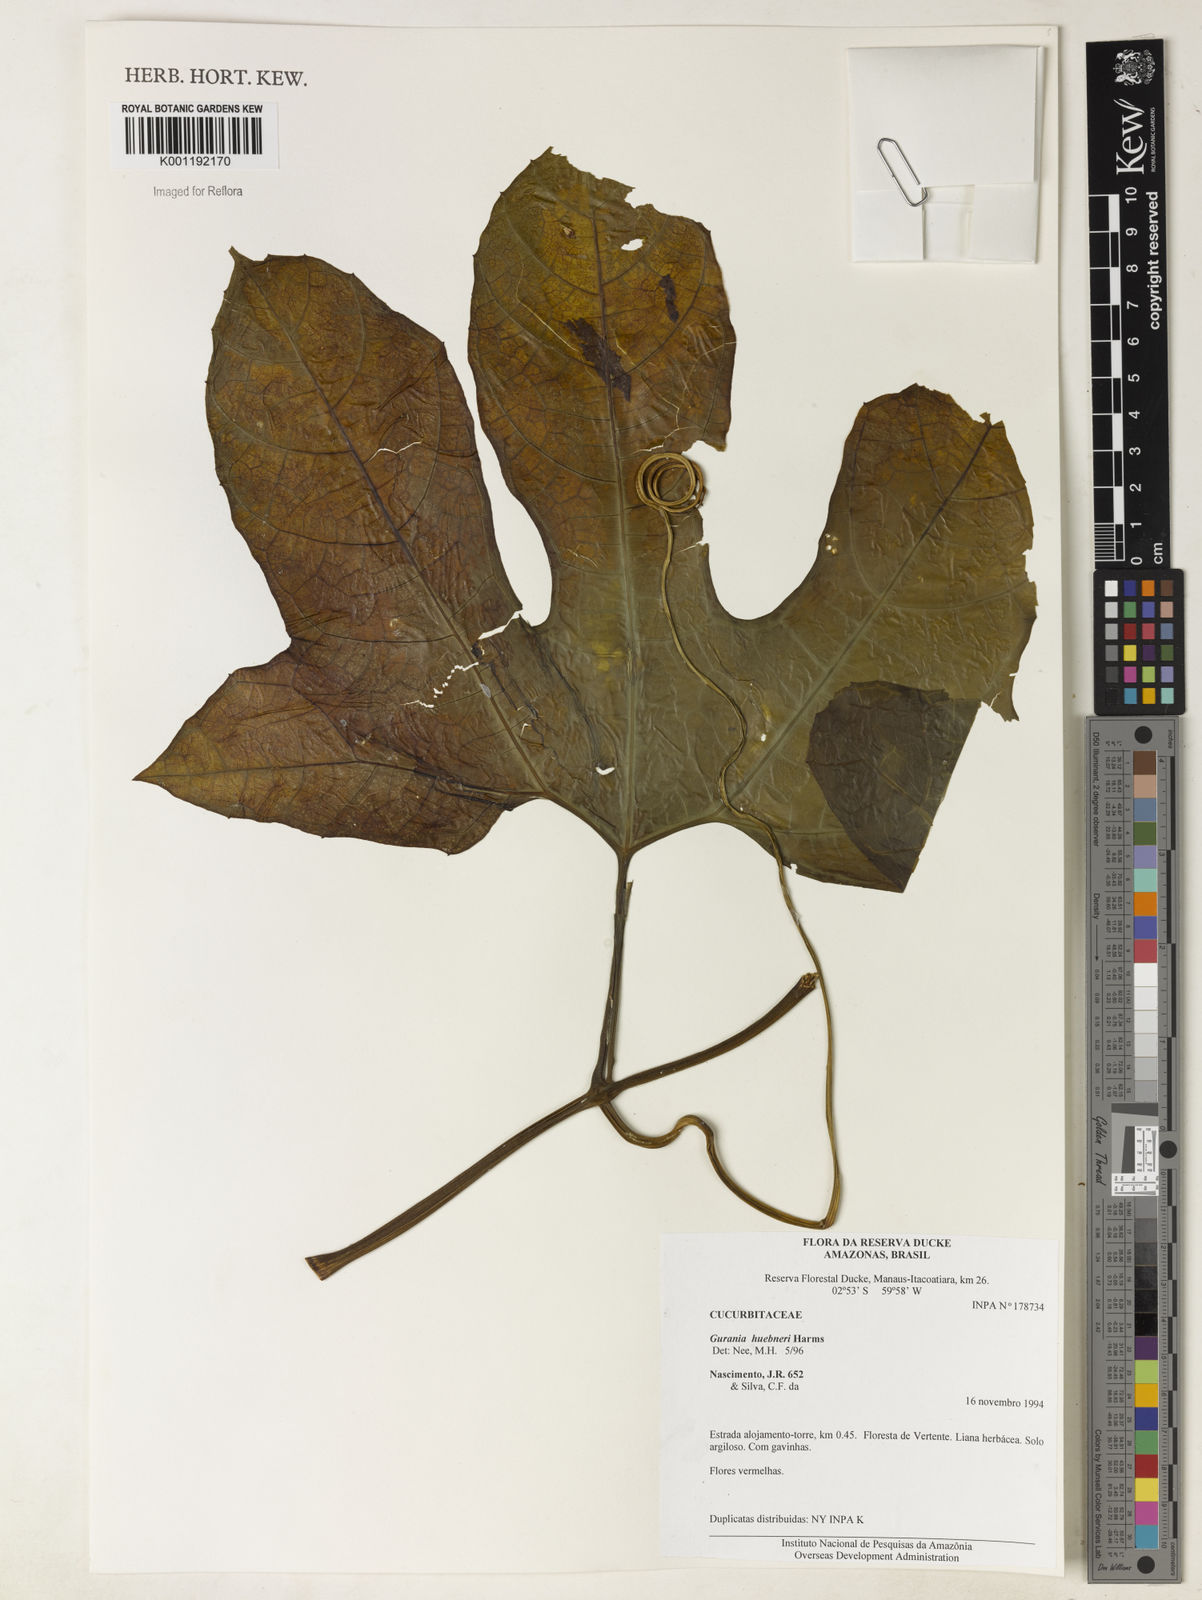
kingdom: Plantae
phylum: Tracheophyta
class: Magnoliopsida
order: Cucurbitales
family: Cucurbitaceae
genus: Gurania
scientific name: Gurania huebneri
